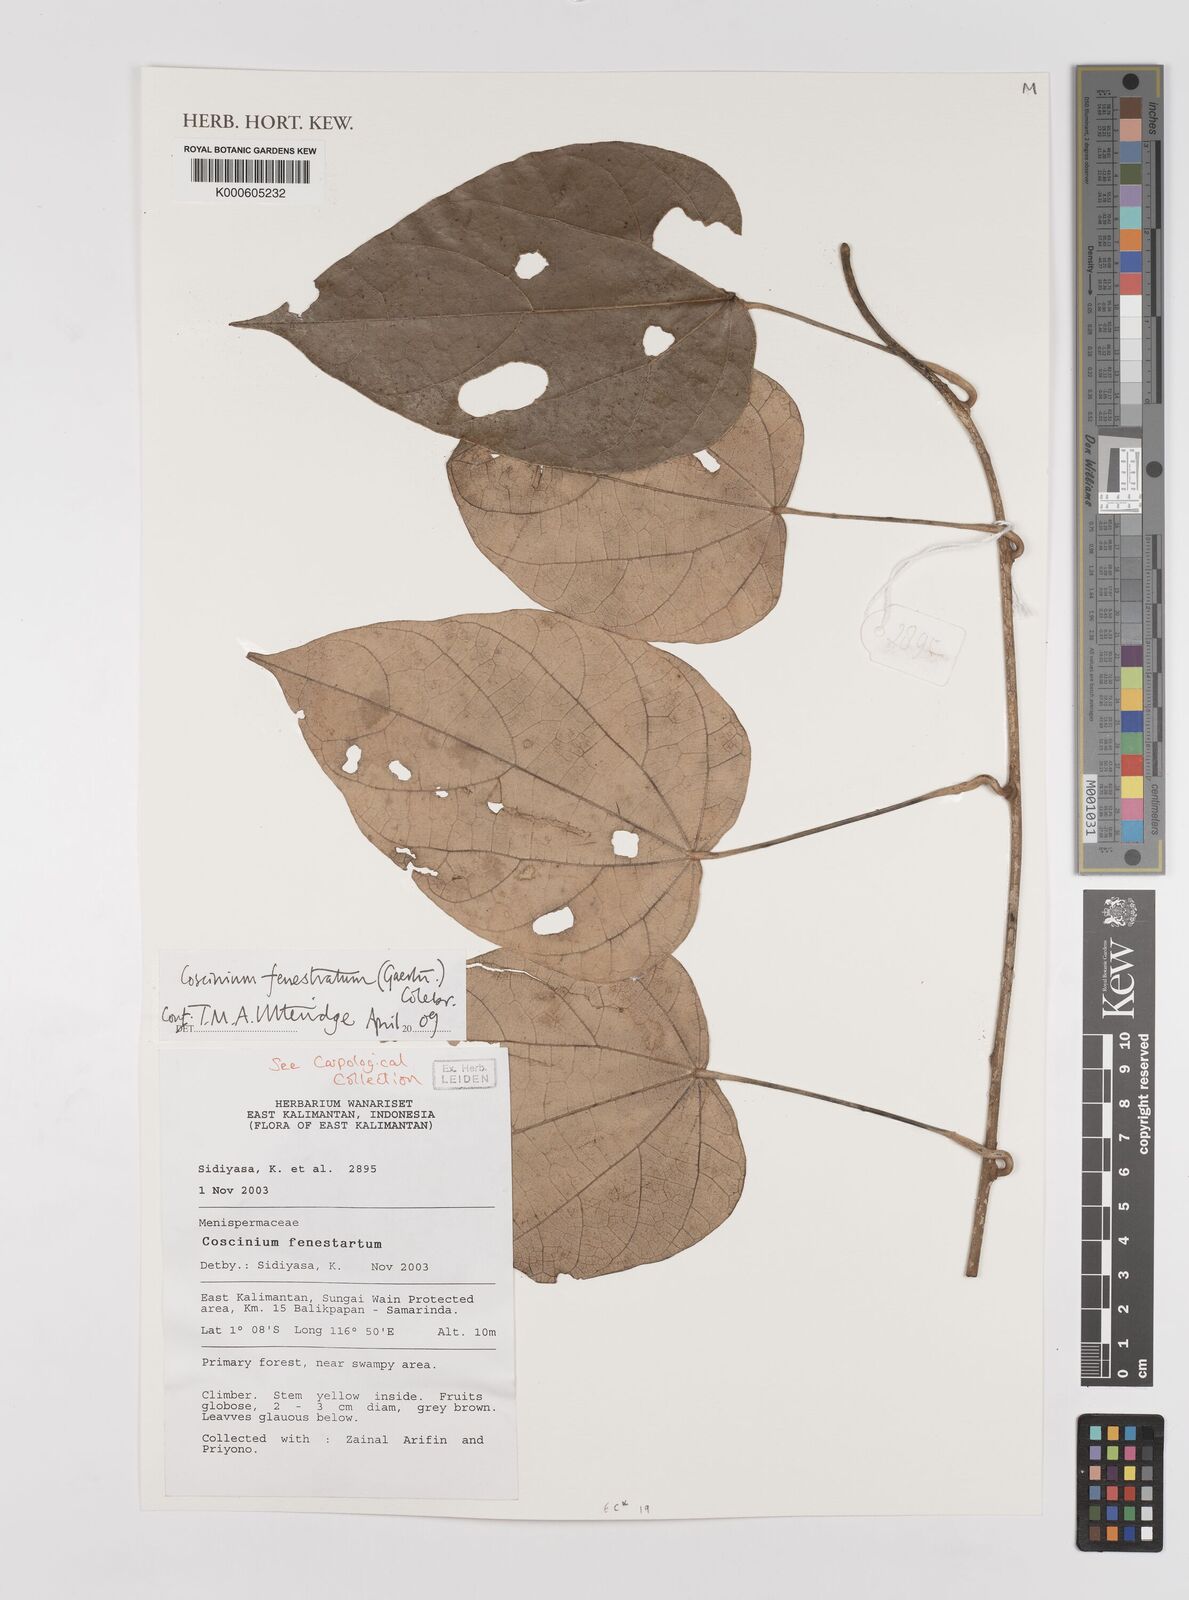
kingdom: Plantae
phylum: Tracheophyta
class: Magnoliopsida
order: Ranunculales
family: Menispermaceae
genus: Coscinium
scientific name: Coscinium fenestratum
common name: False calumba
